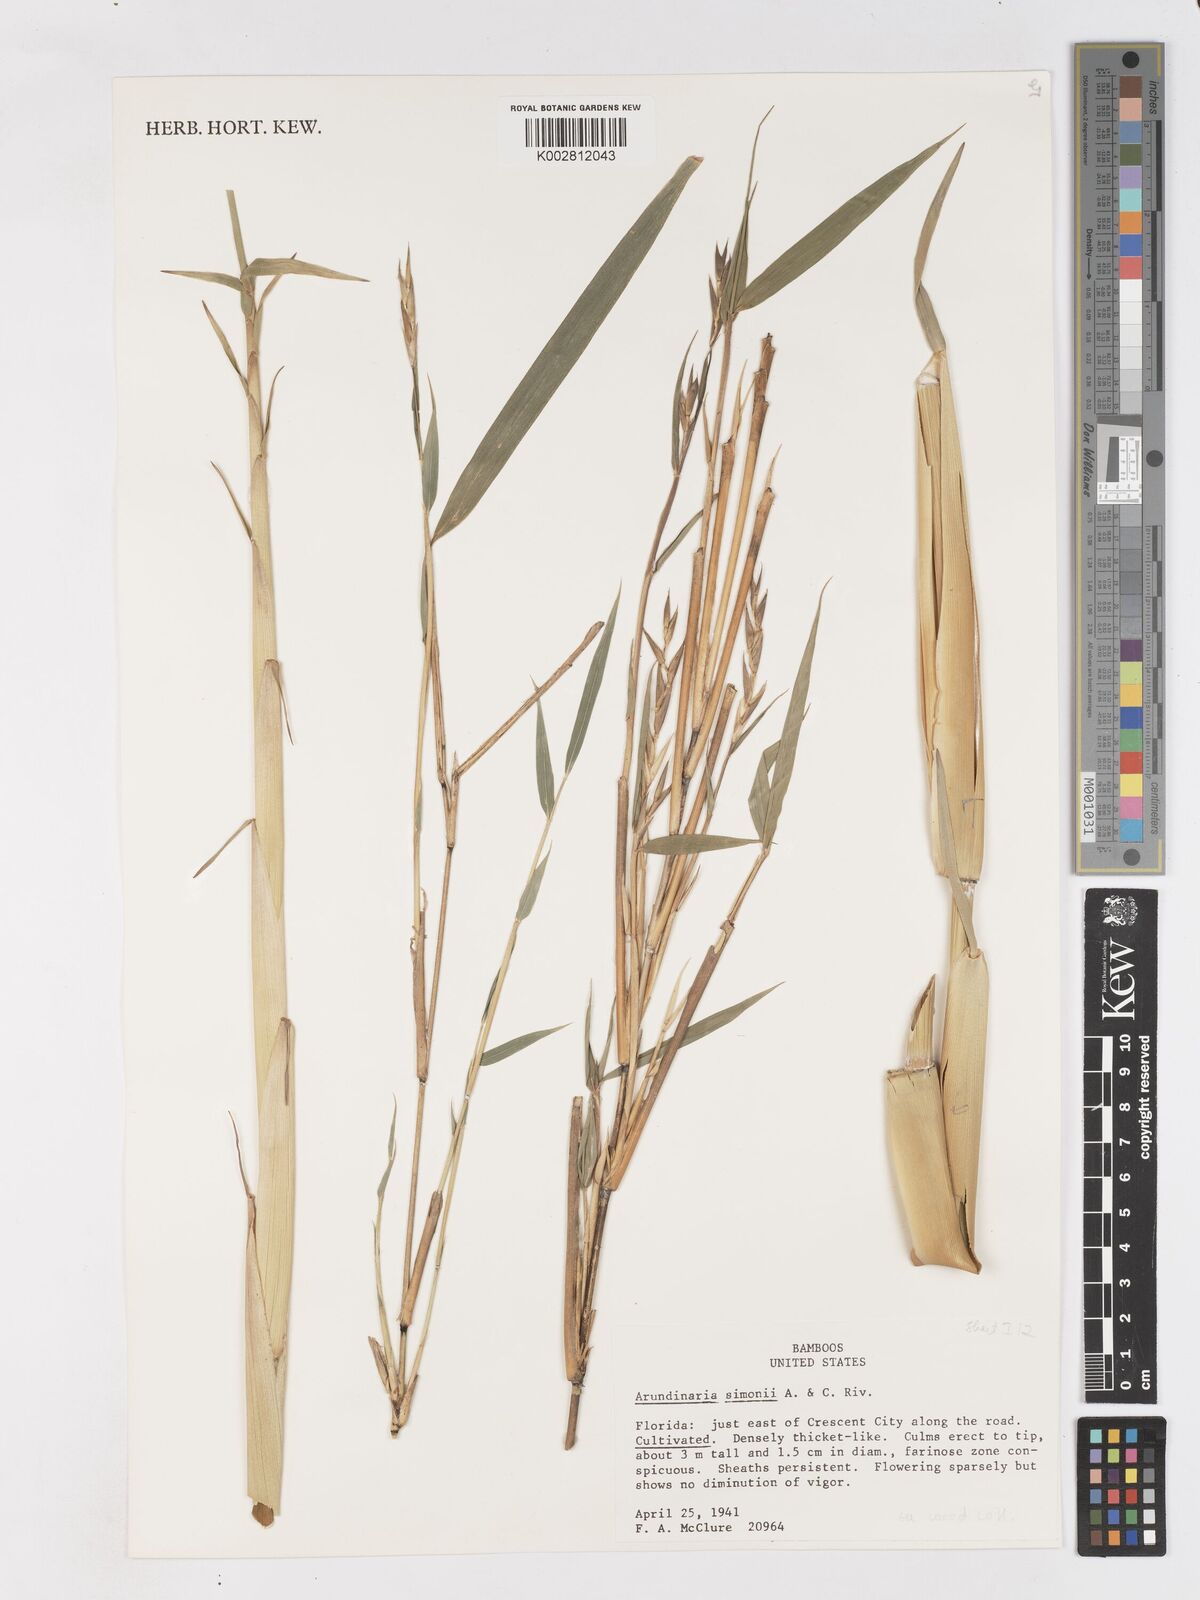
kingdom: Plantae
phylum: Tracheophyta
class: Liliopsida
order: Poales
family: Poaceae
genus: Pleioblastus
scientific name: Pleioblastus simonii
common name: Simon bamboo
